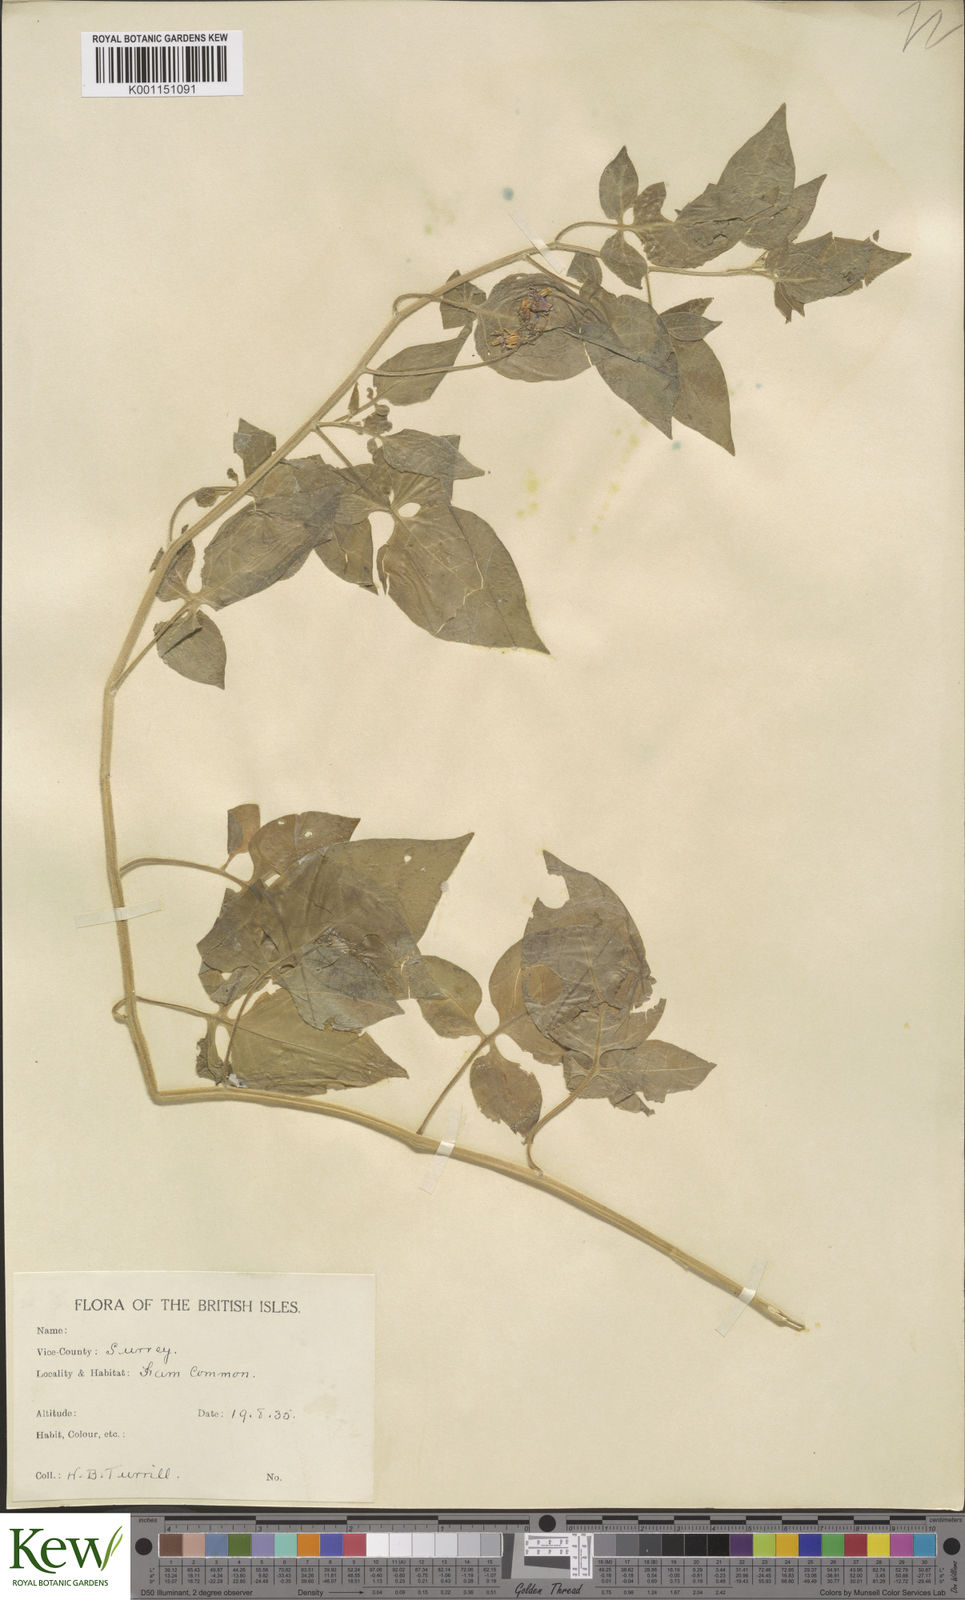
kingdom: Plantae
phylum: Tracheophyta
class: Magnoliopsida
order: Solanales
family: Solanaceae
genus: Solanum
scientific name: Solanum dulcamara
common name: Climbing nightshade
